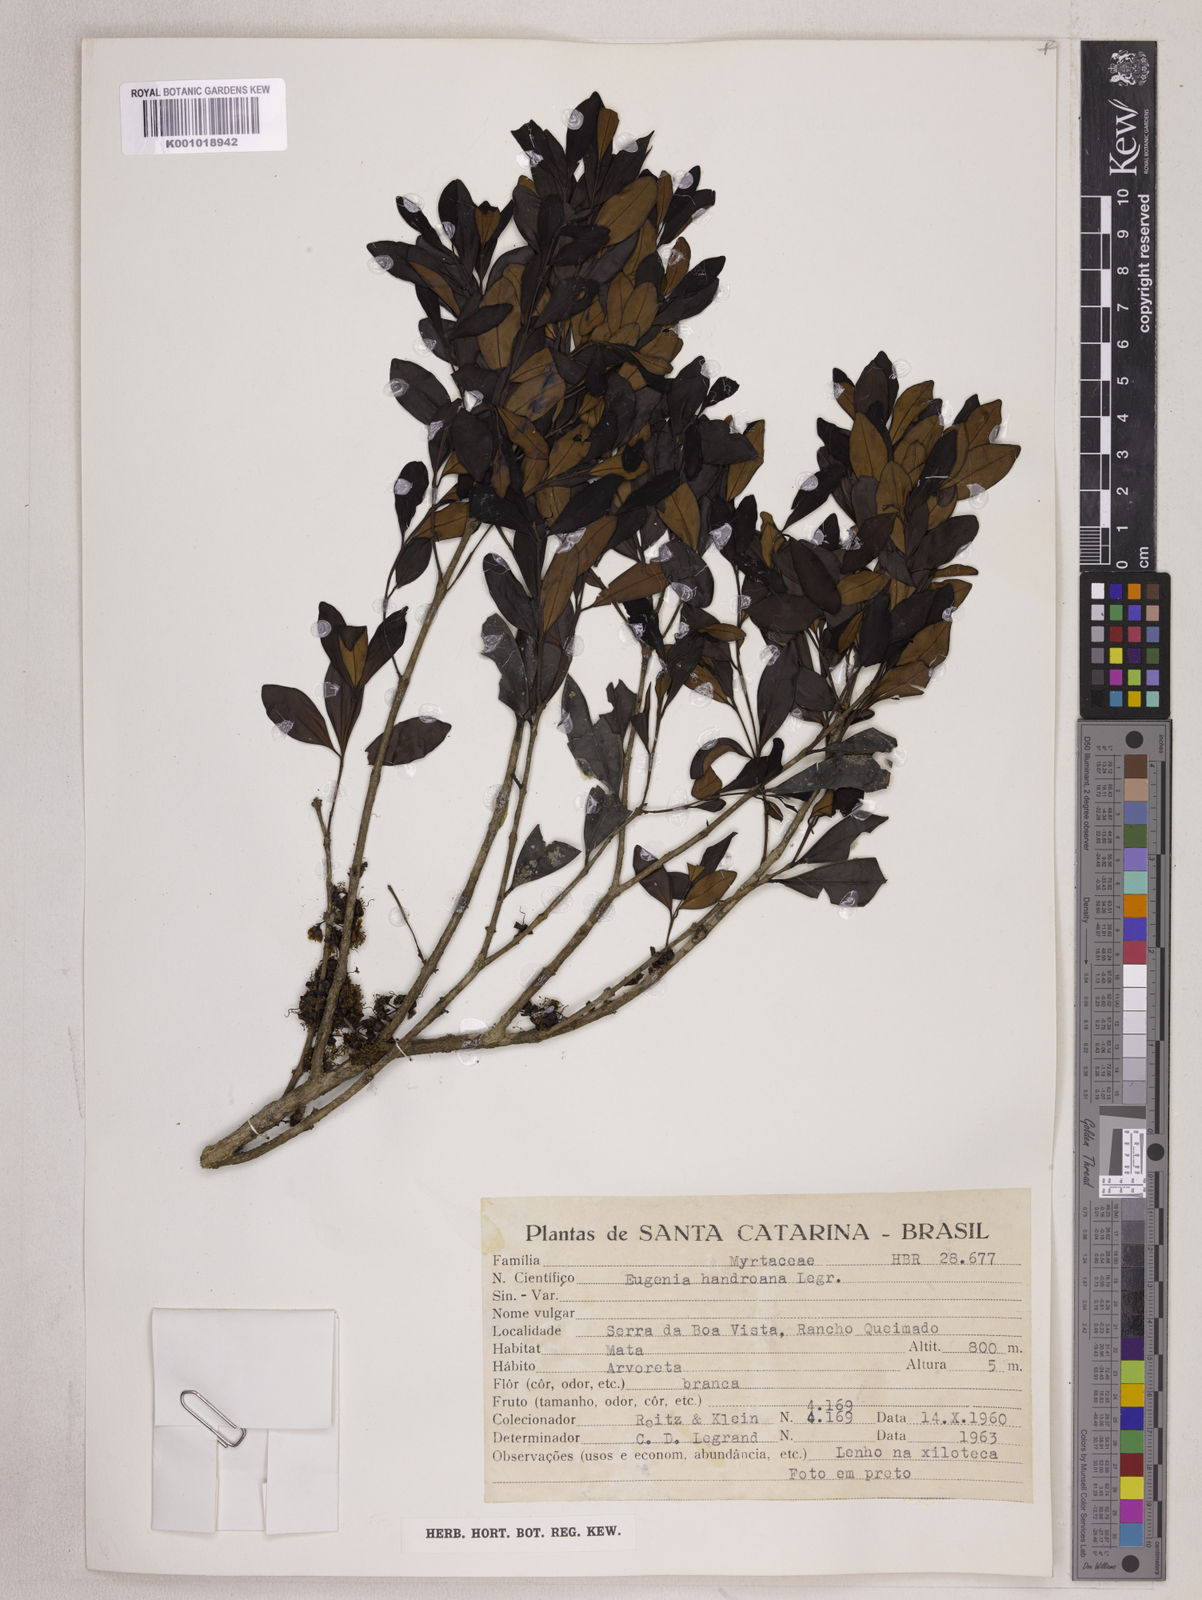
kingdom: Plantae
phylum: Tracheophyta
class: Magnoliopsida
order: Myrtales
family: Myrtaceae
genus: Eugenia
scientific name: Eugenia handroana
